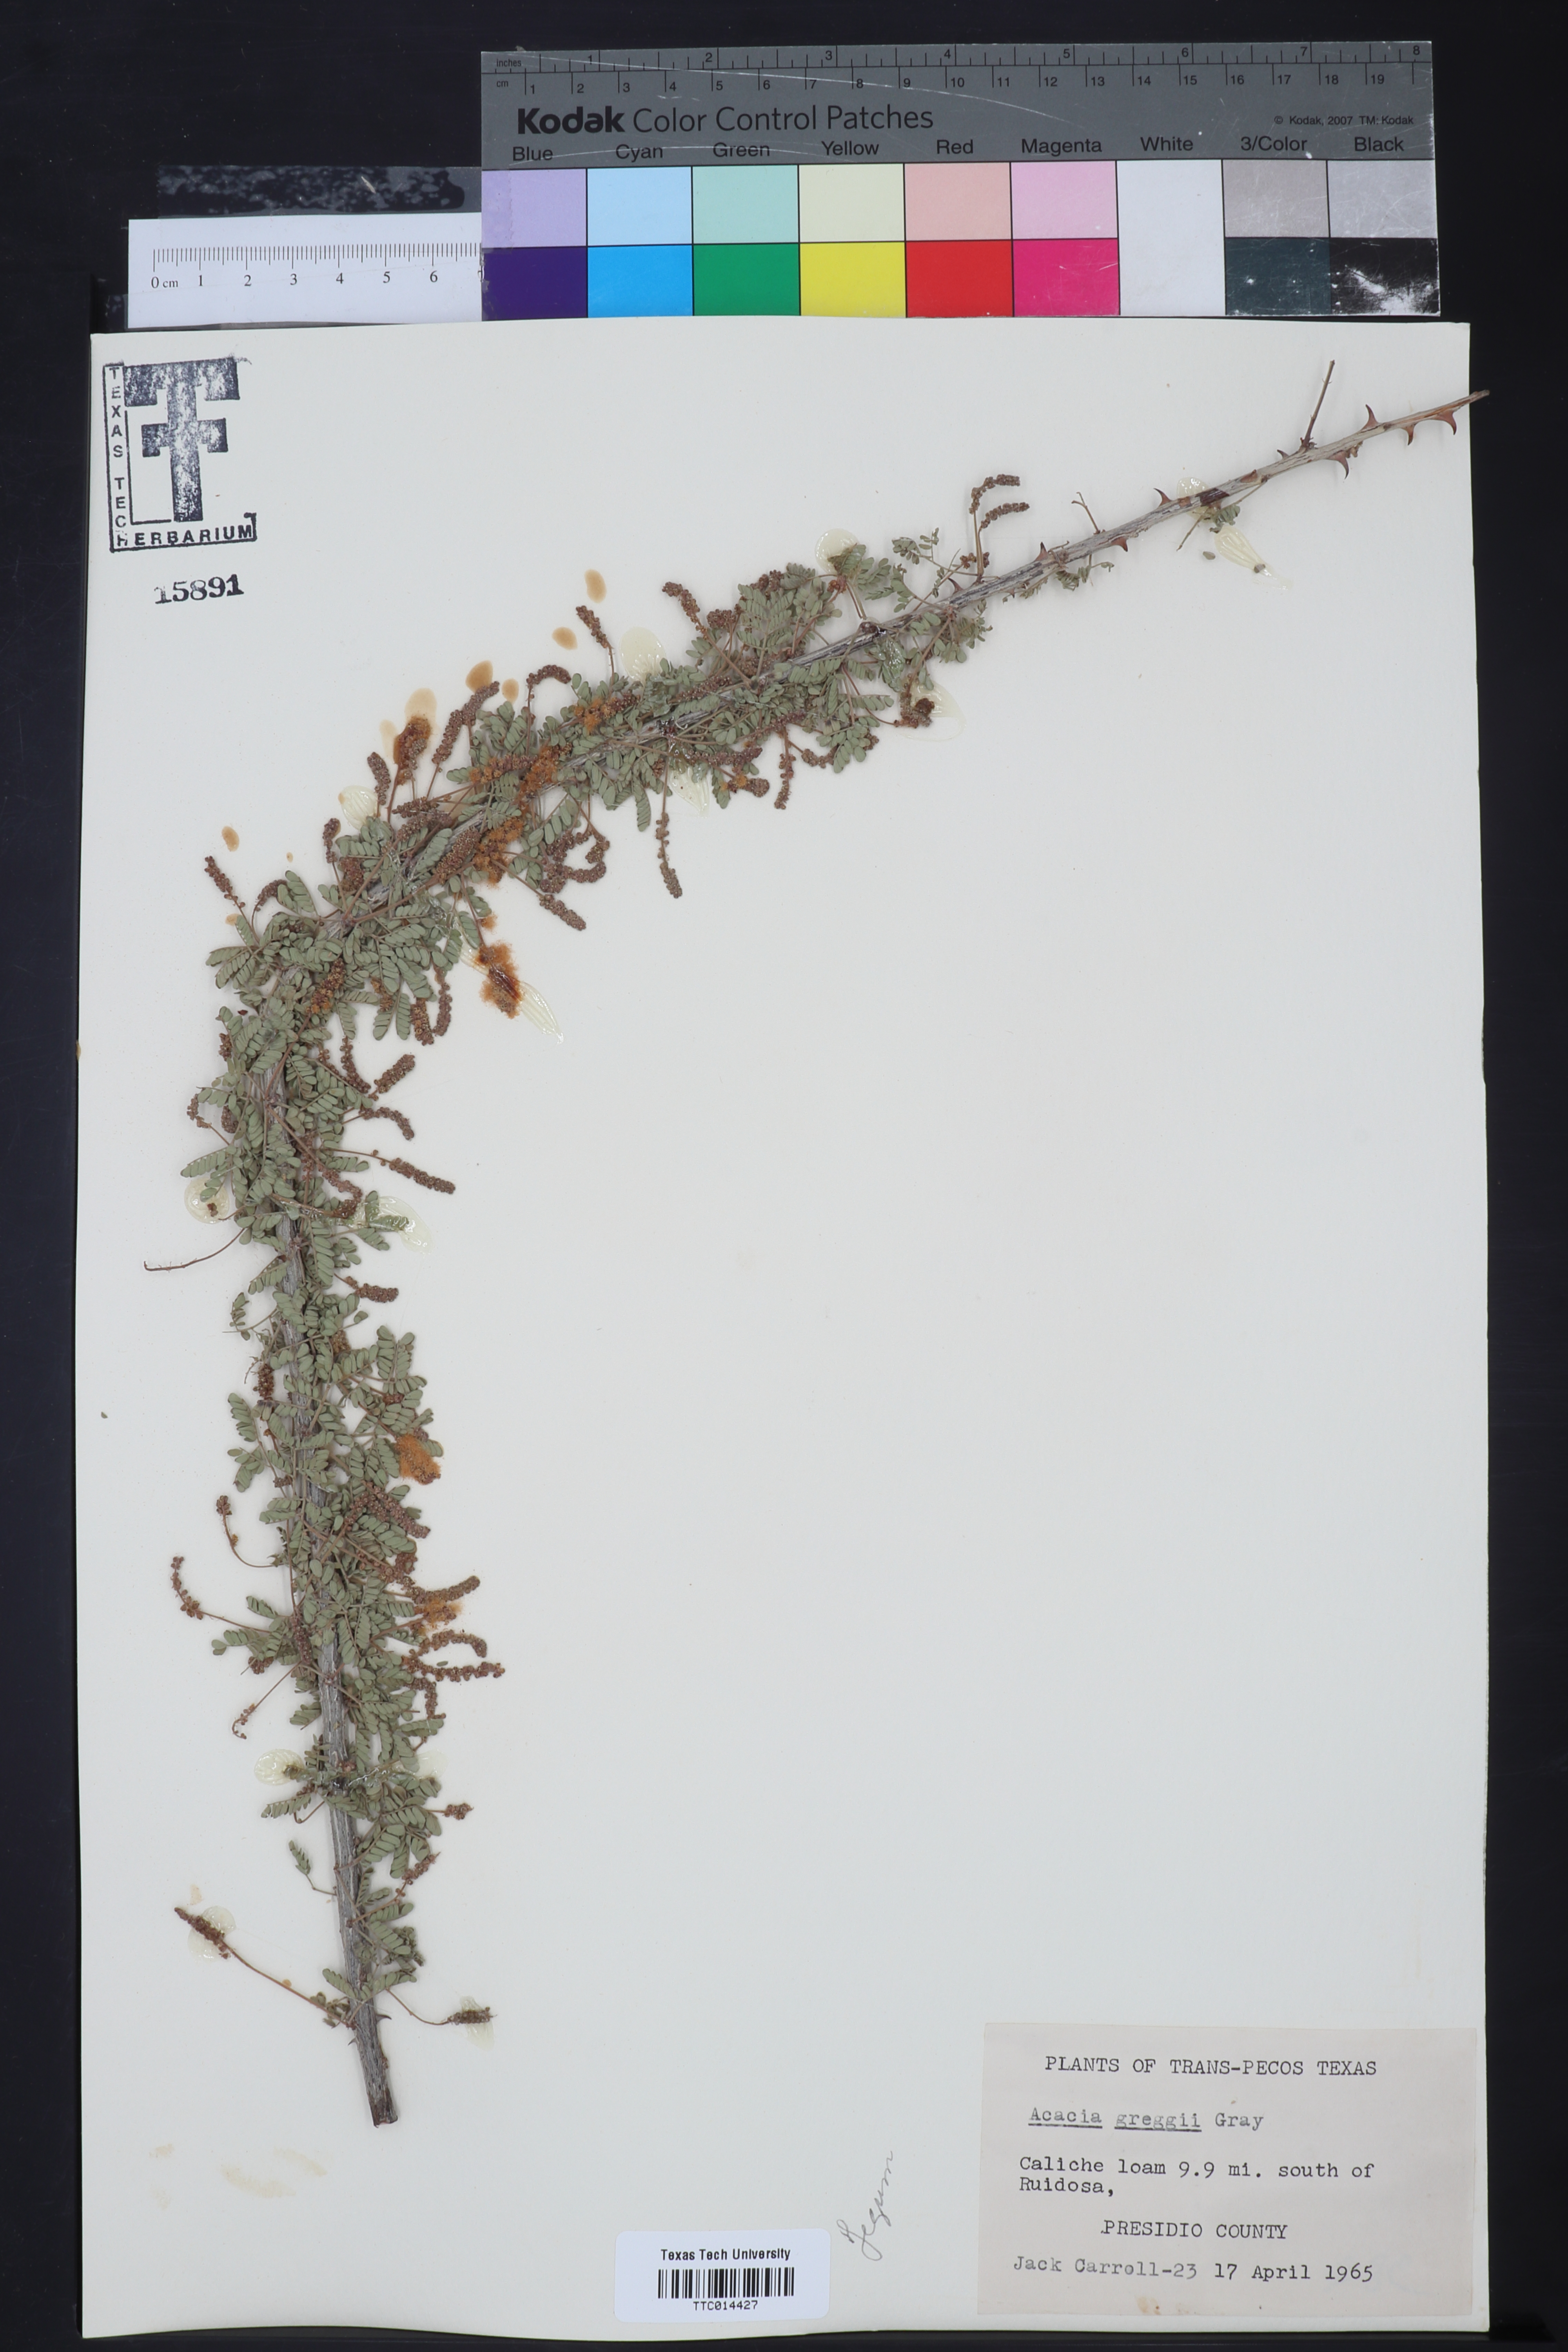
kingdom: Plantae
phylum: Tracheophyta
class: Magnoliopsida
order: Fabales
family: Fabaceae
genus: Senegalia
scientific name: Senegalia greggii
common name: Texas-mimosa
